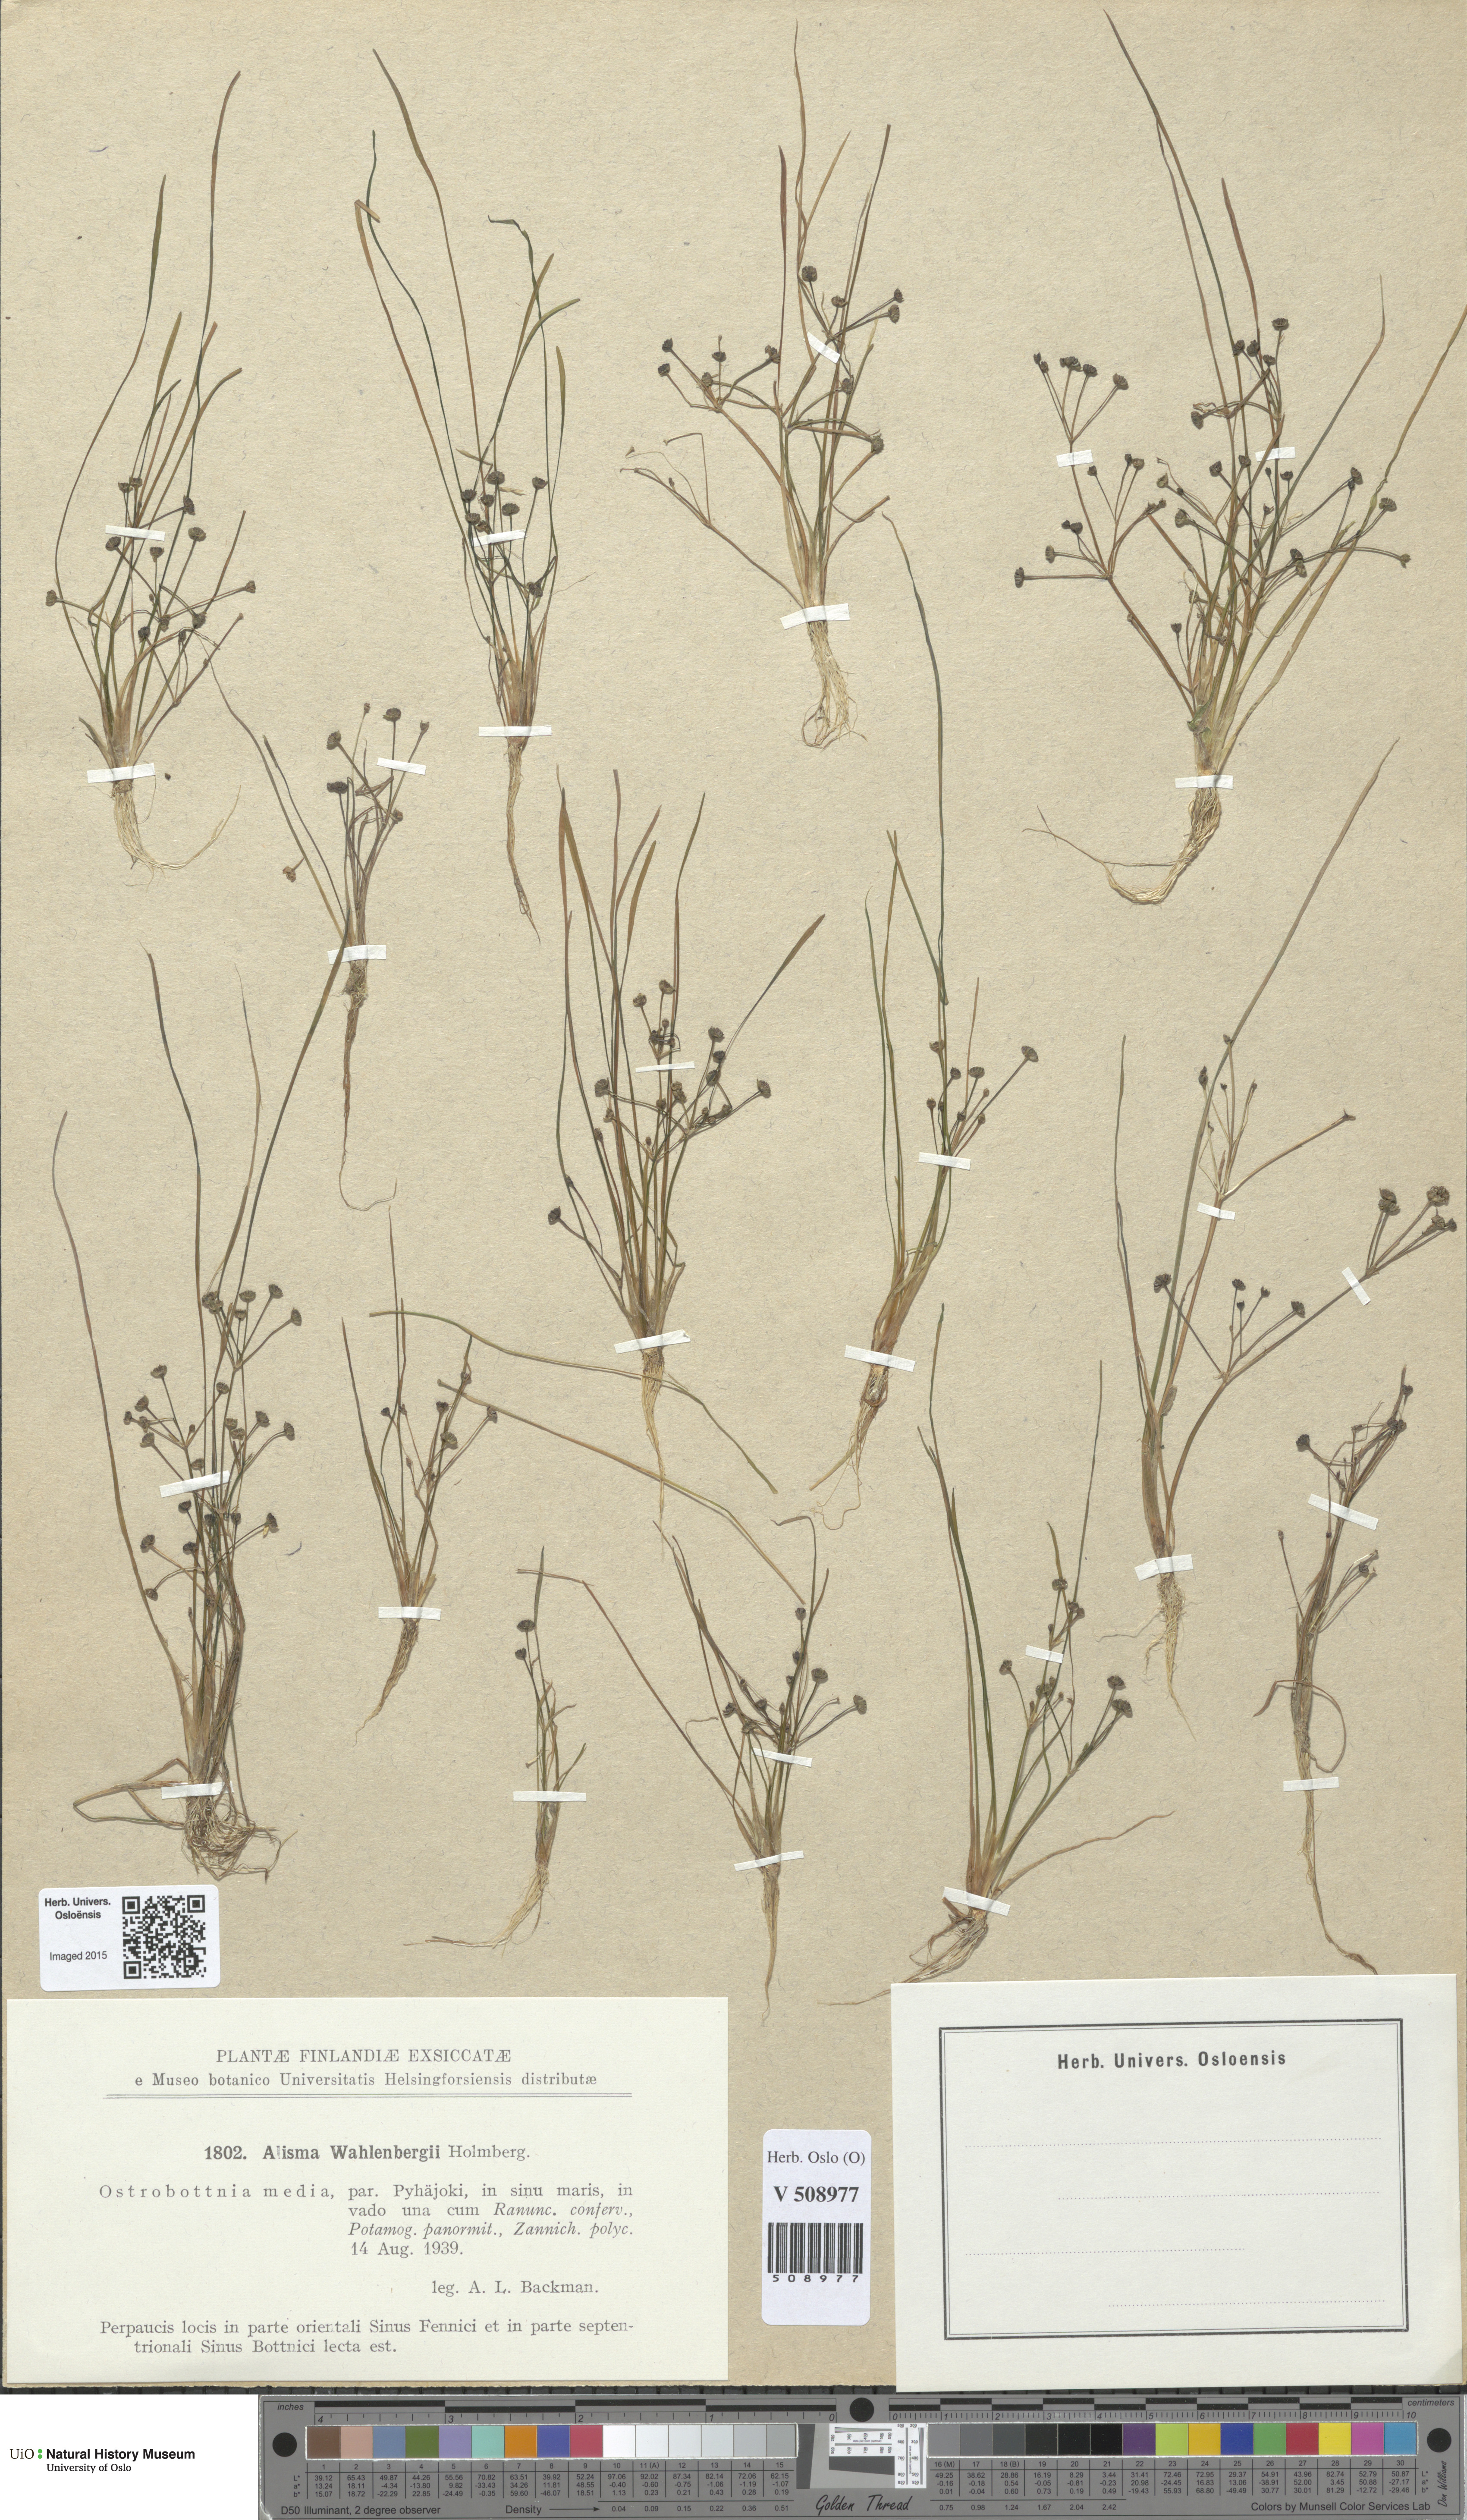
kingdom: Plantae
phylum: Tracheophyta
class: Liliopsida
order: Alismatales
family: Alismataceae
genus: Alisma
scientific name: Alisma wahlenbergii
